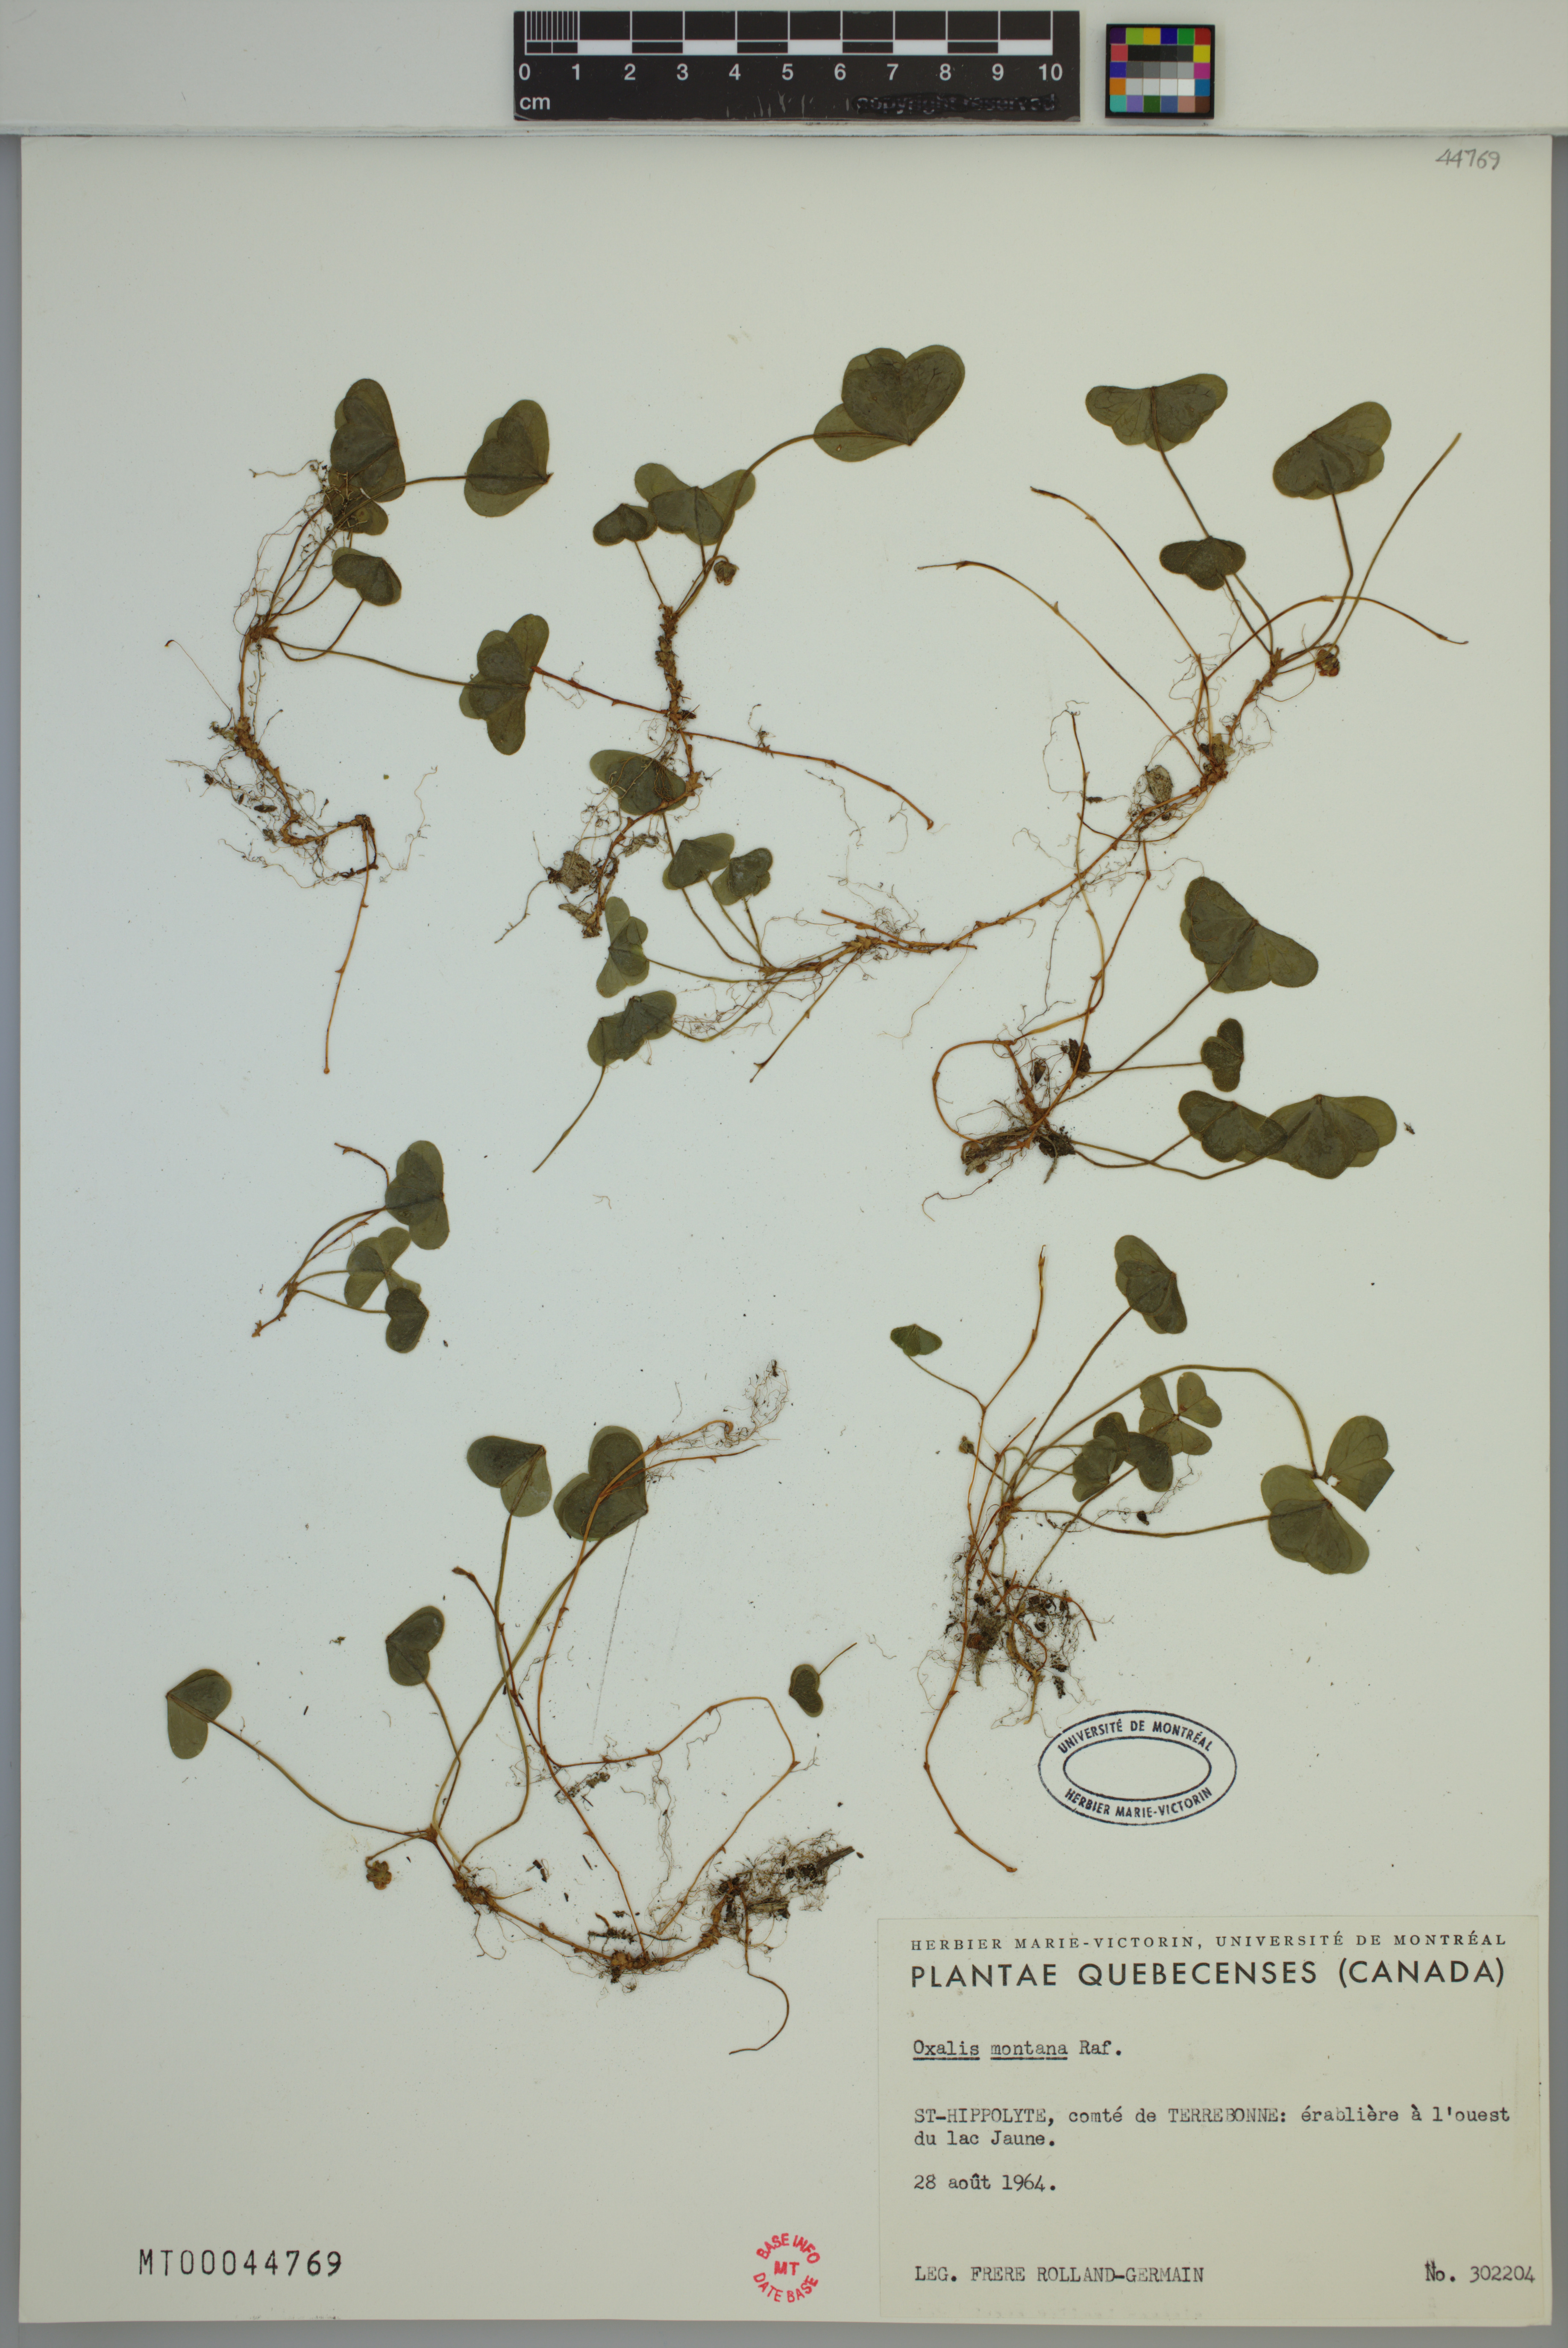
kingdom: Plantae
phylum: Tracheophyta
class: Magnoliopsida
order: Oxalidales
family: Oxalidaceae
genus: Oxalis
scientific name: Oxalis montana
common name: American wood-sorrel
